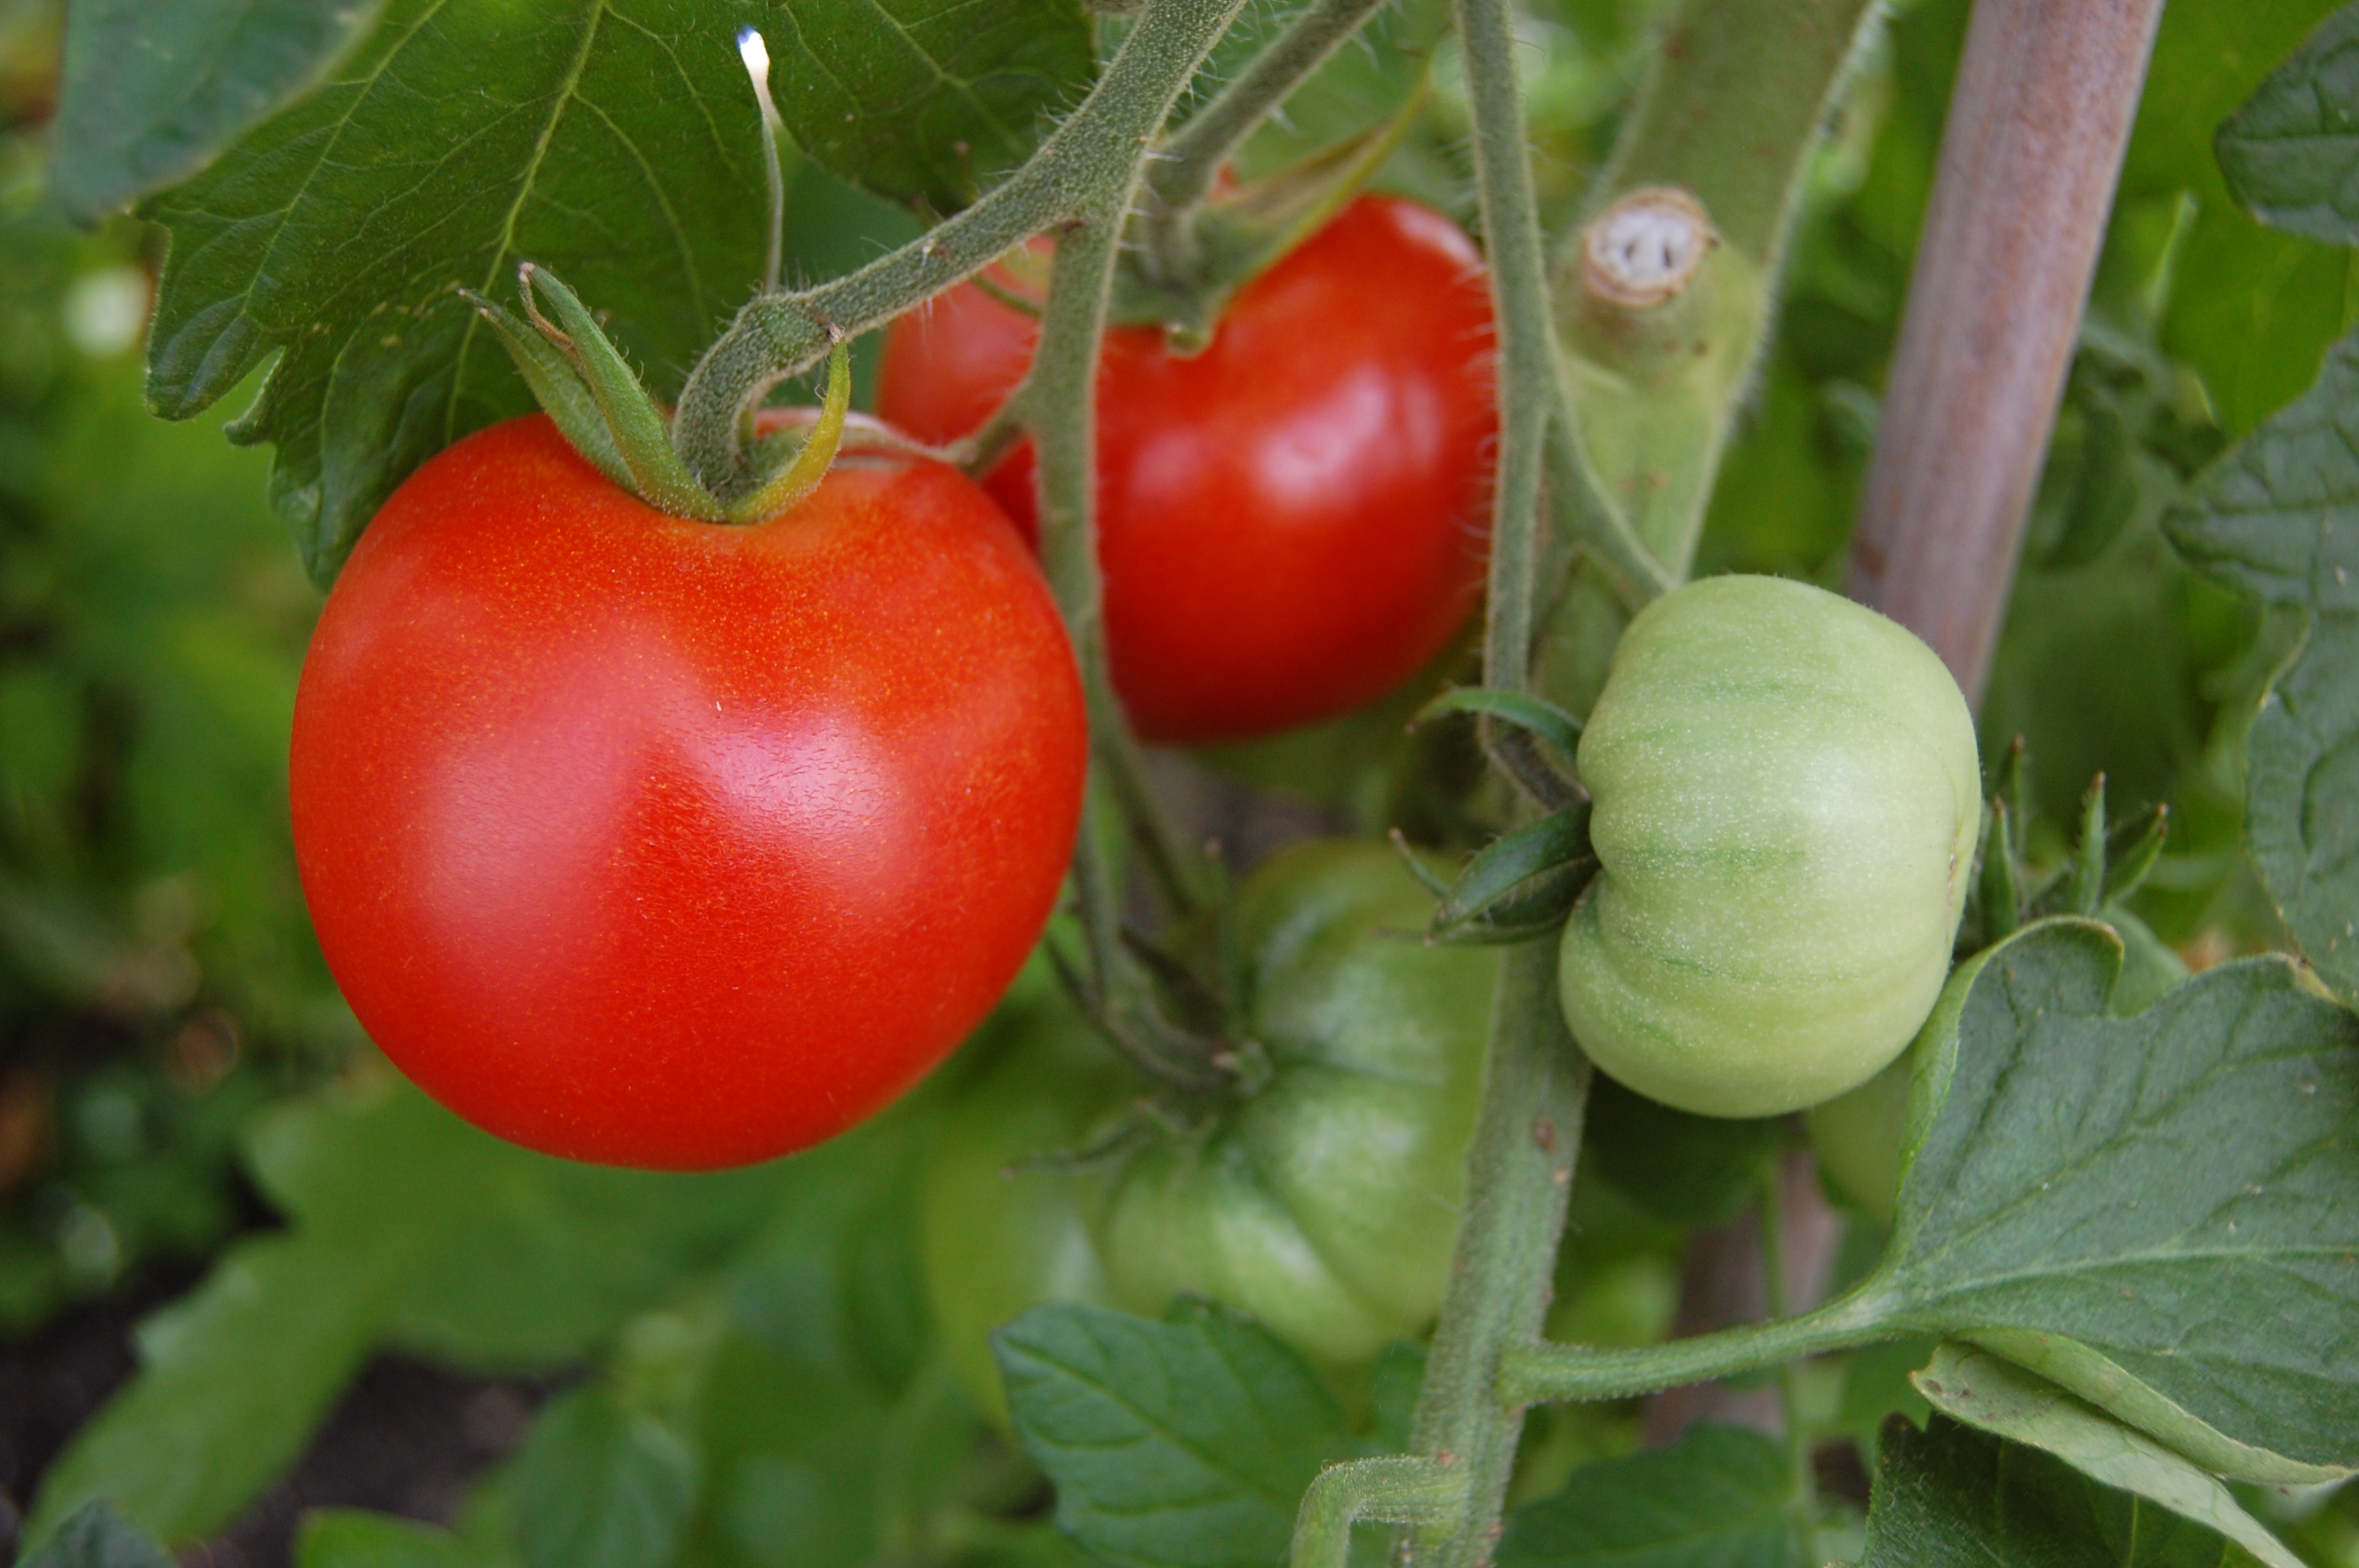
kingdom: Plantae
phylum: Tracheophyta
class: Magnoliopsida
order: Solanales
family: Solanaceae
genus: Solanum
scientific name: Solanum lycopersicum
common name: Garden tomato
